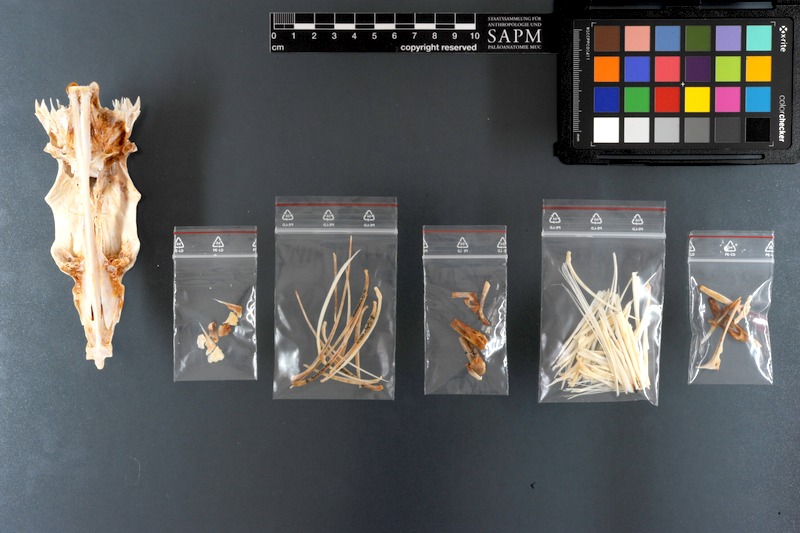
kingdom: Animalia
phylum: Chordata
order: Perciformes
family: Sphyraenidae
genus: Sphyraena
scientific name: Sphyraena
